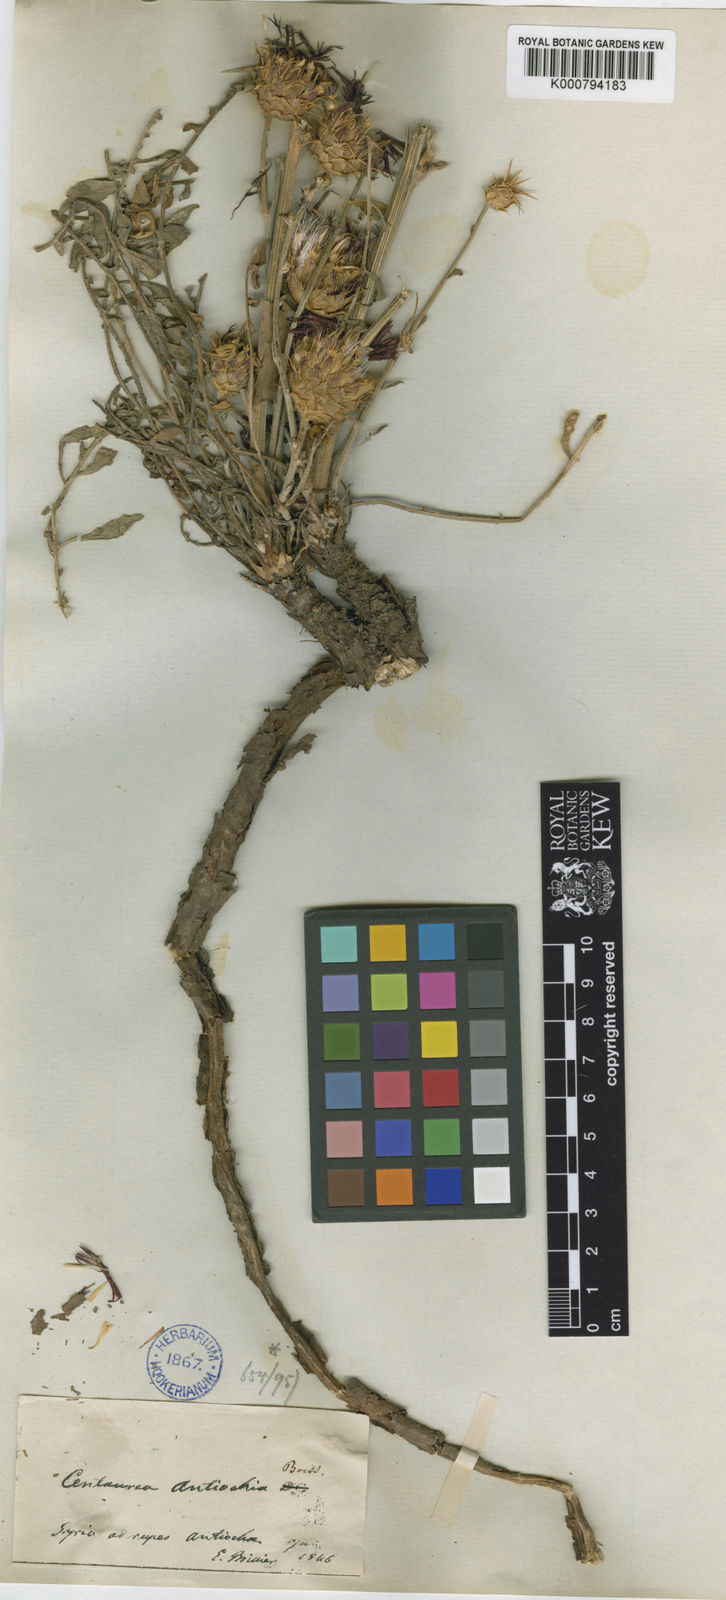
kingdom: Plantae
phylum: Tracheophyta
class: Magnoliopsida
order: Asterales
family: Asteraceae
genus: Centaurea
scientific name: Centaurea antiochia
